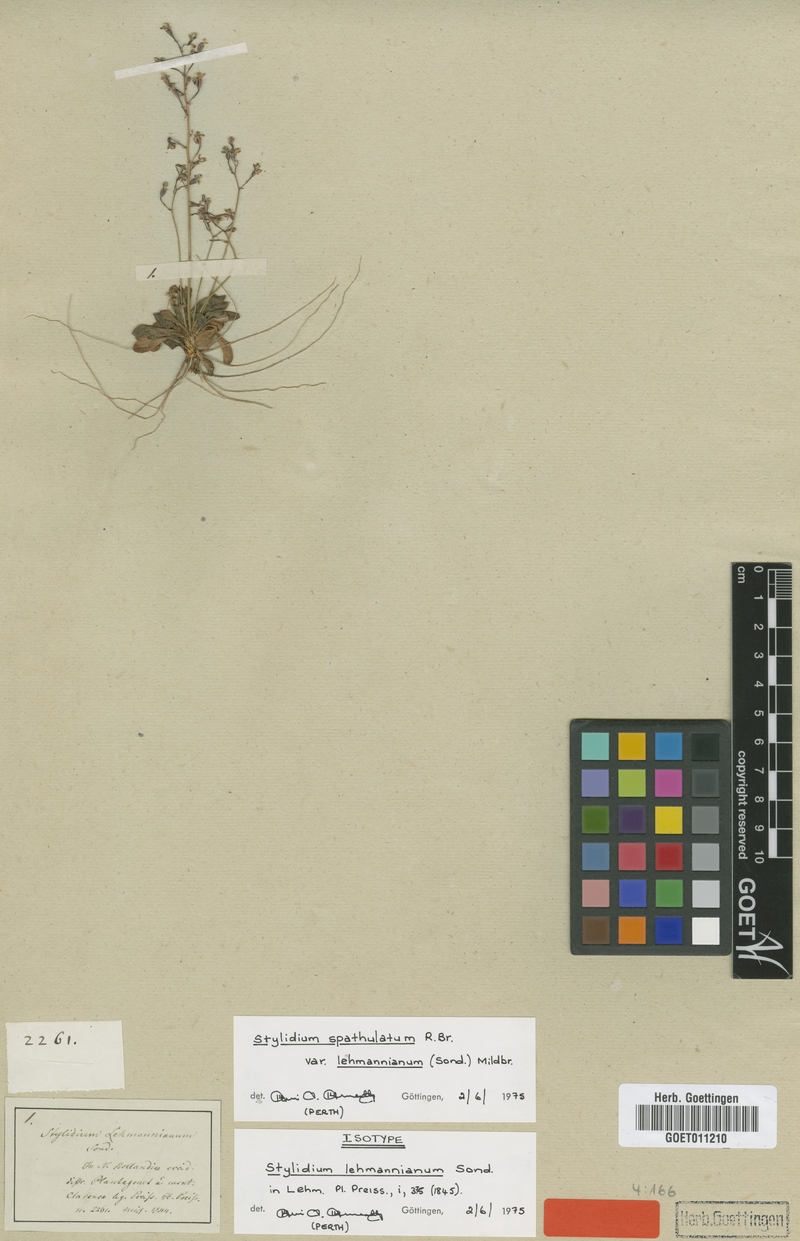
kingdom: Plantae
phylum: Tracheophyta
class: Magnoliopsida
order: Asterales
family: Stylidiaceae
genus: Stylidium
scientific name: Stylidium spathulatum
